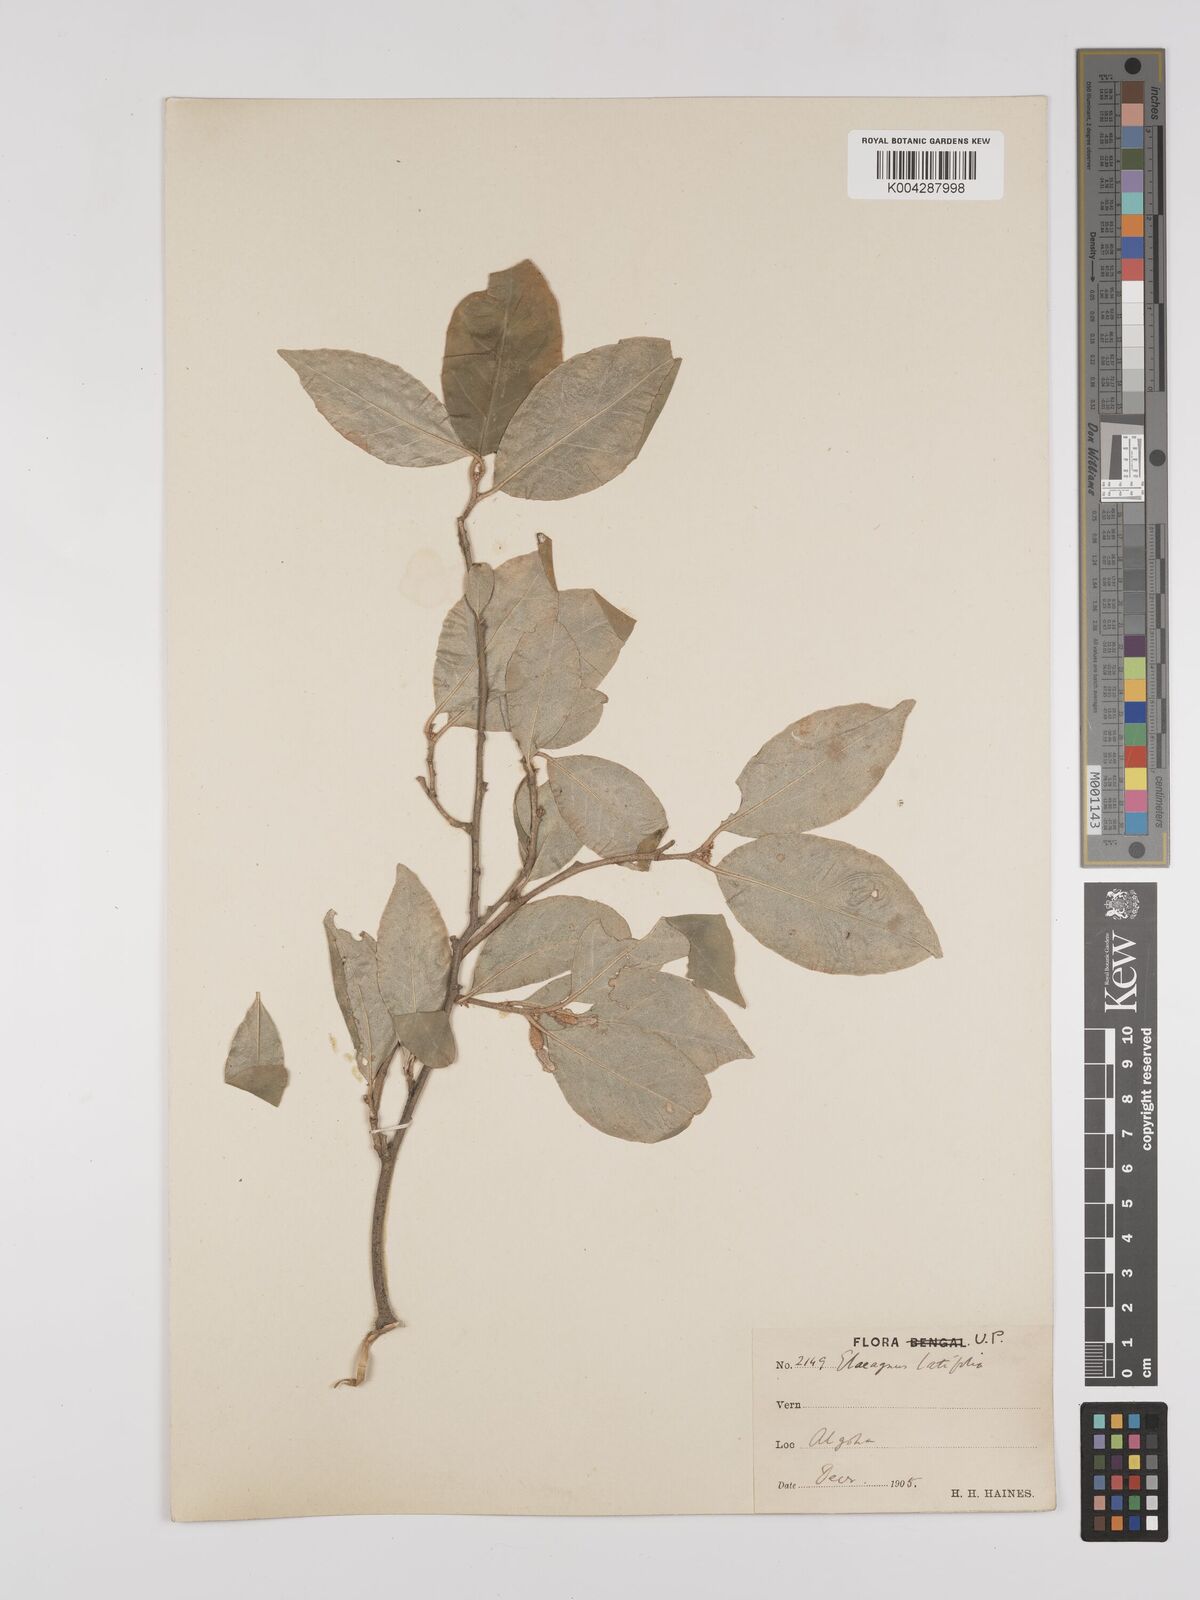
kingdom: Plantae
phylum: Tracheophyta
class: Magnoliopsida
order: Rosales
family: Elaeagnaceae
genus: Elaeagnus
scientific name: Elaeagnus latifolia
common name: Oleaster
